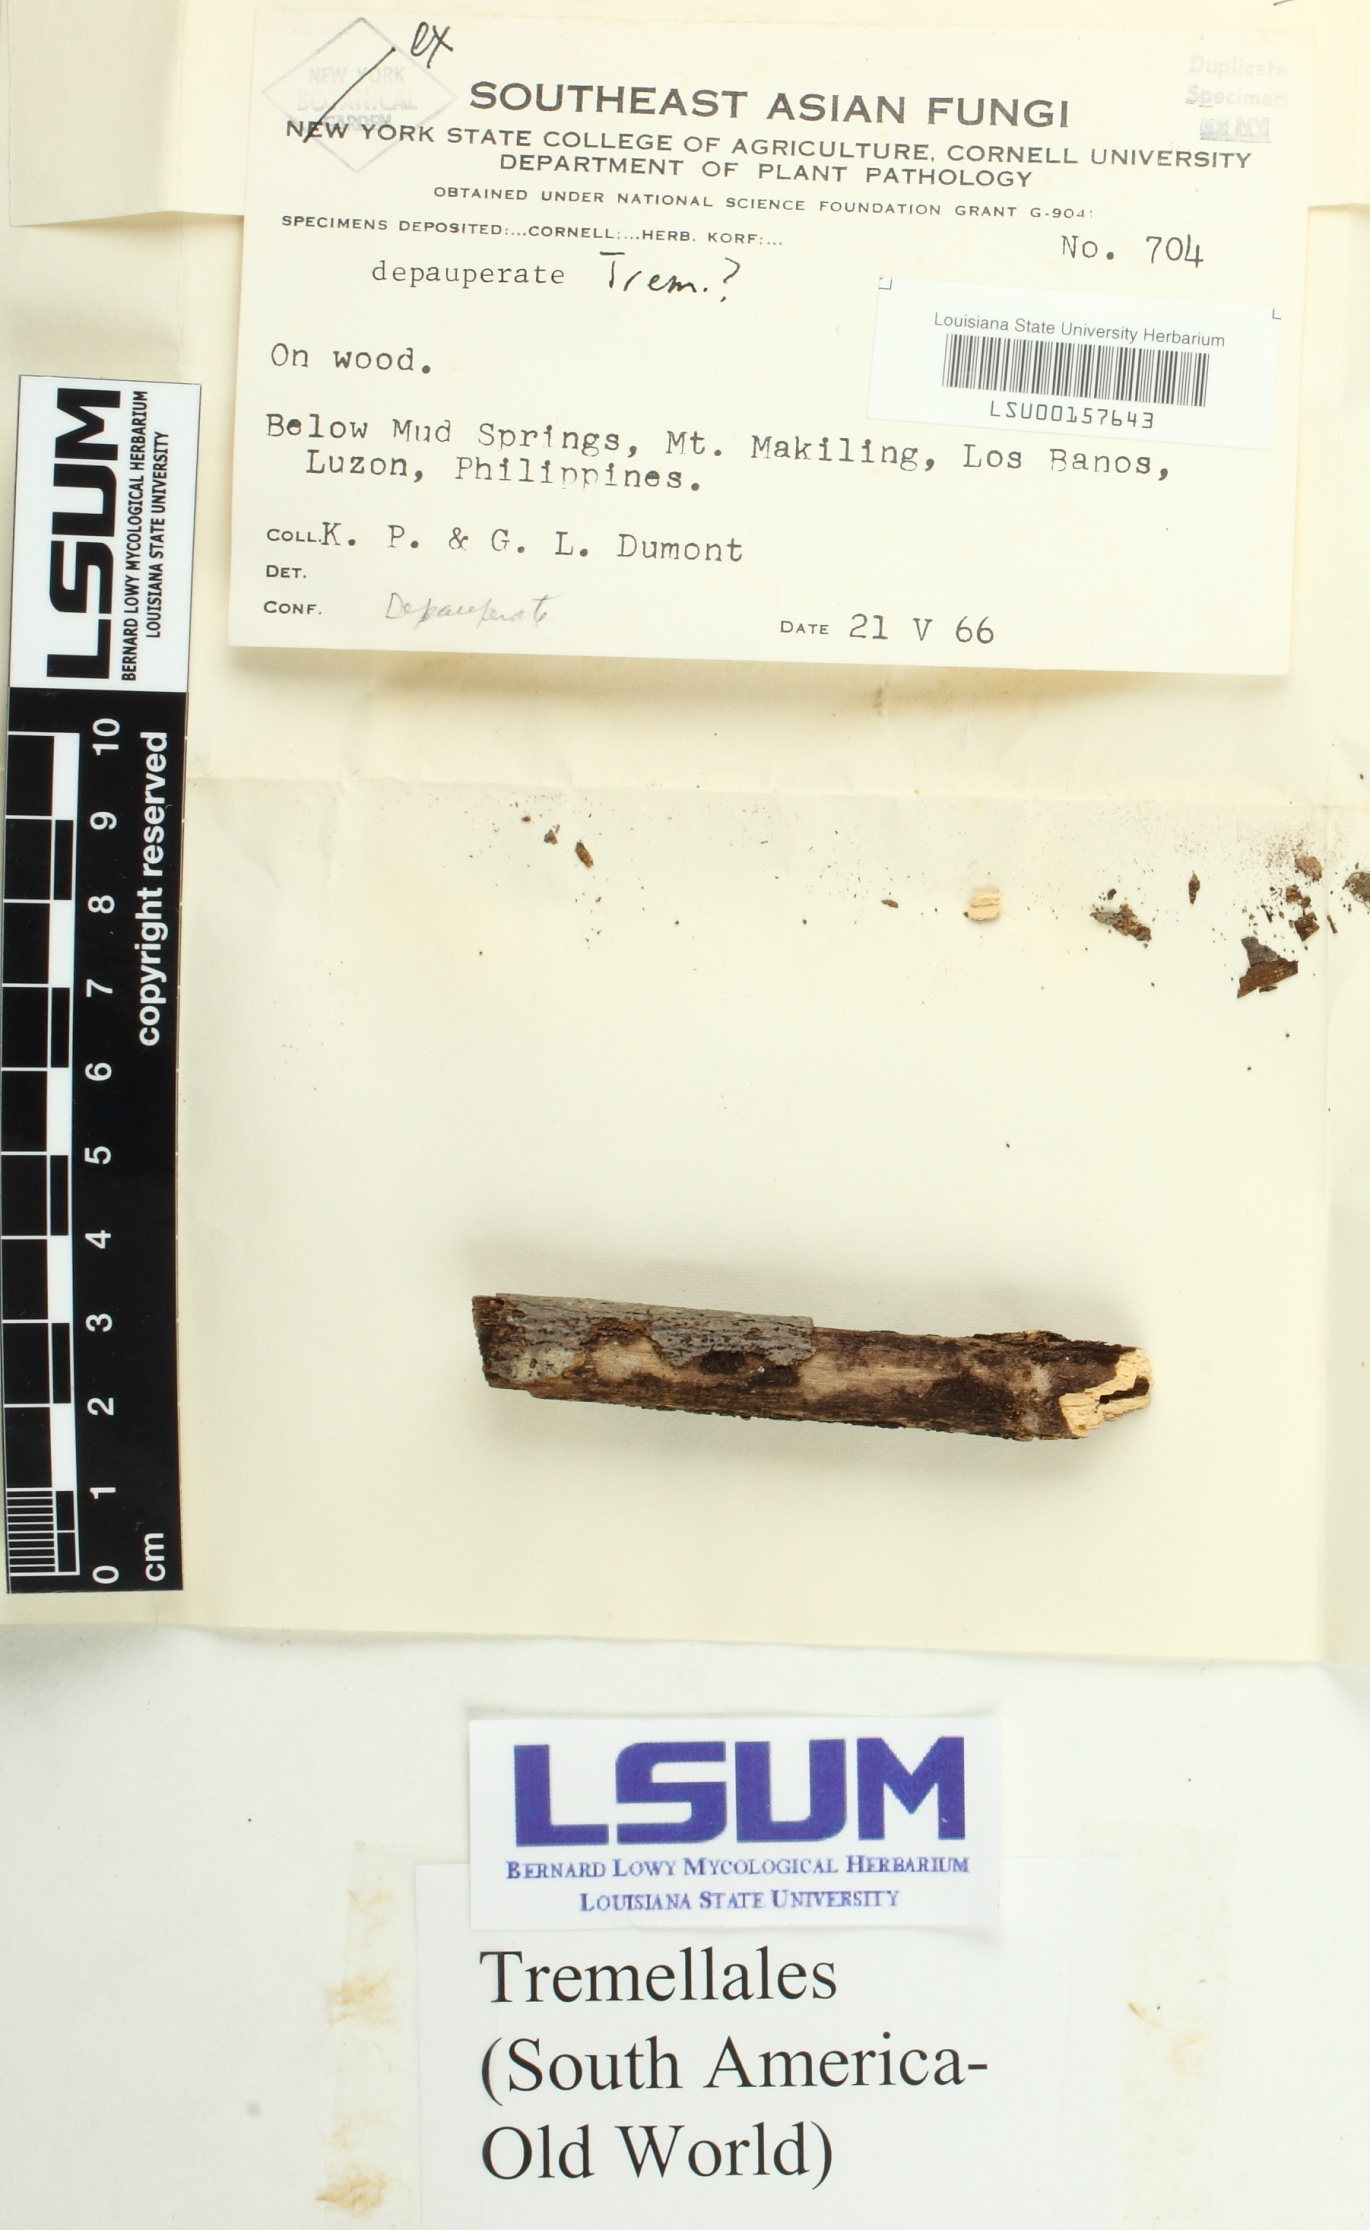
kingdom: Fungi
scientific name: Fungi
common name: Fungi
